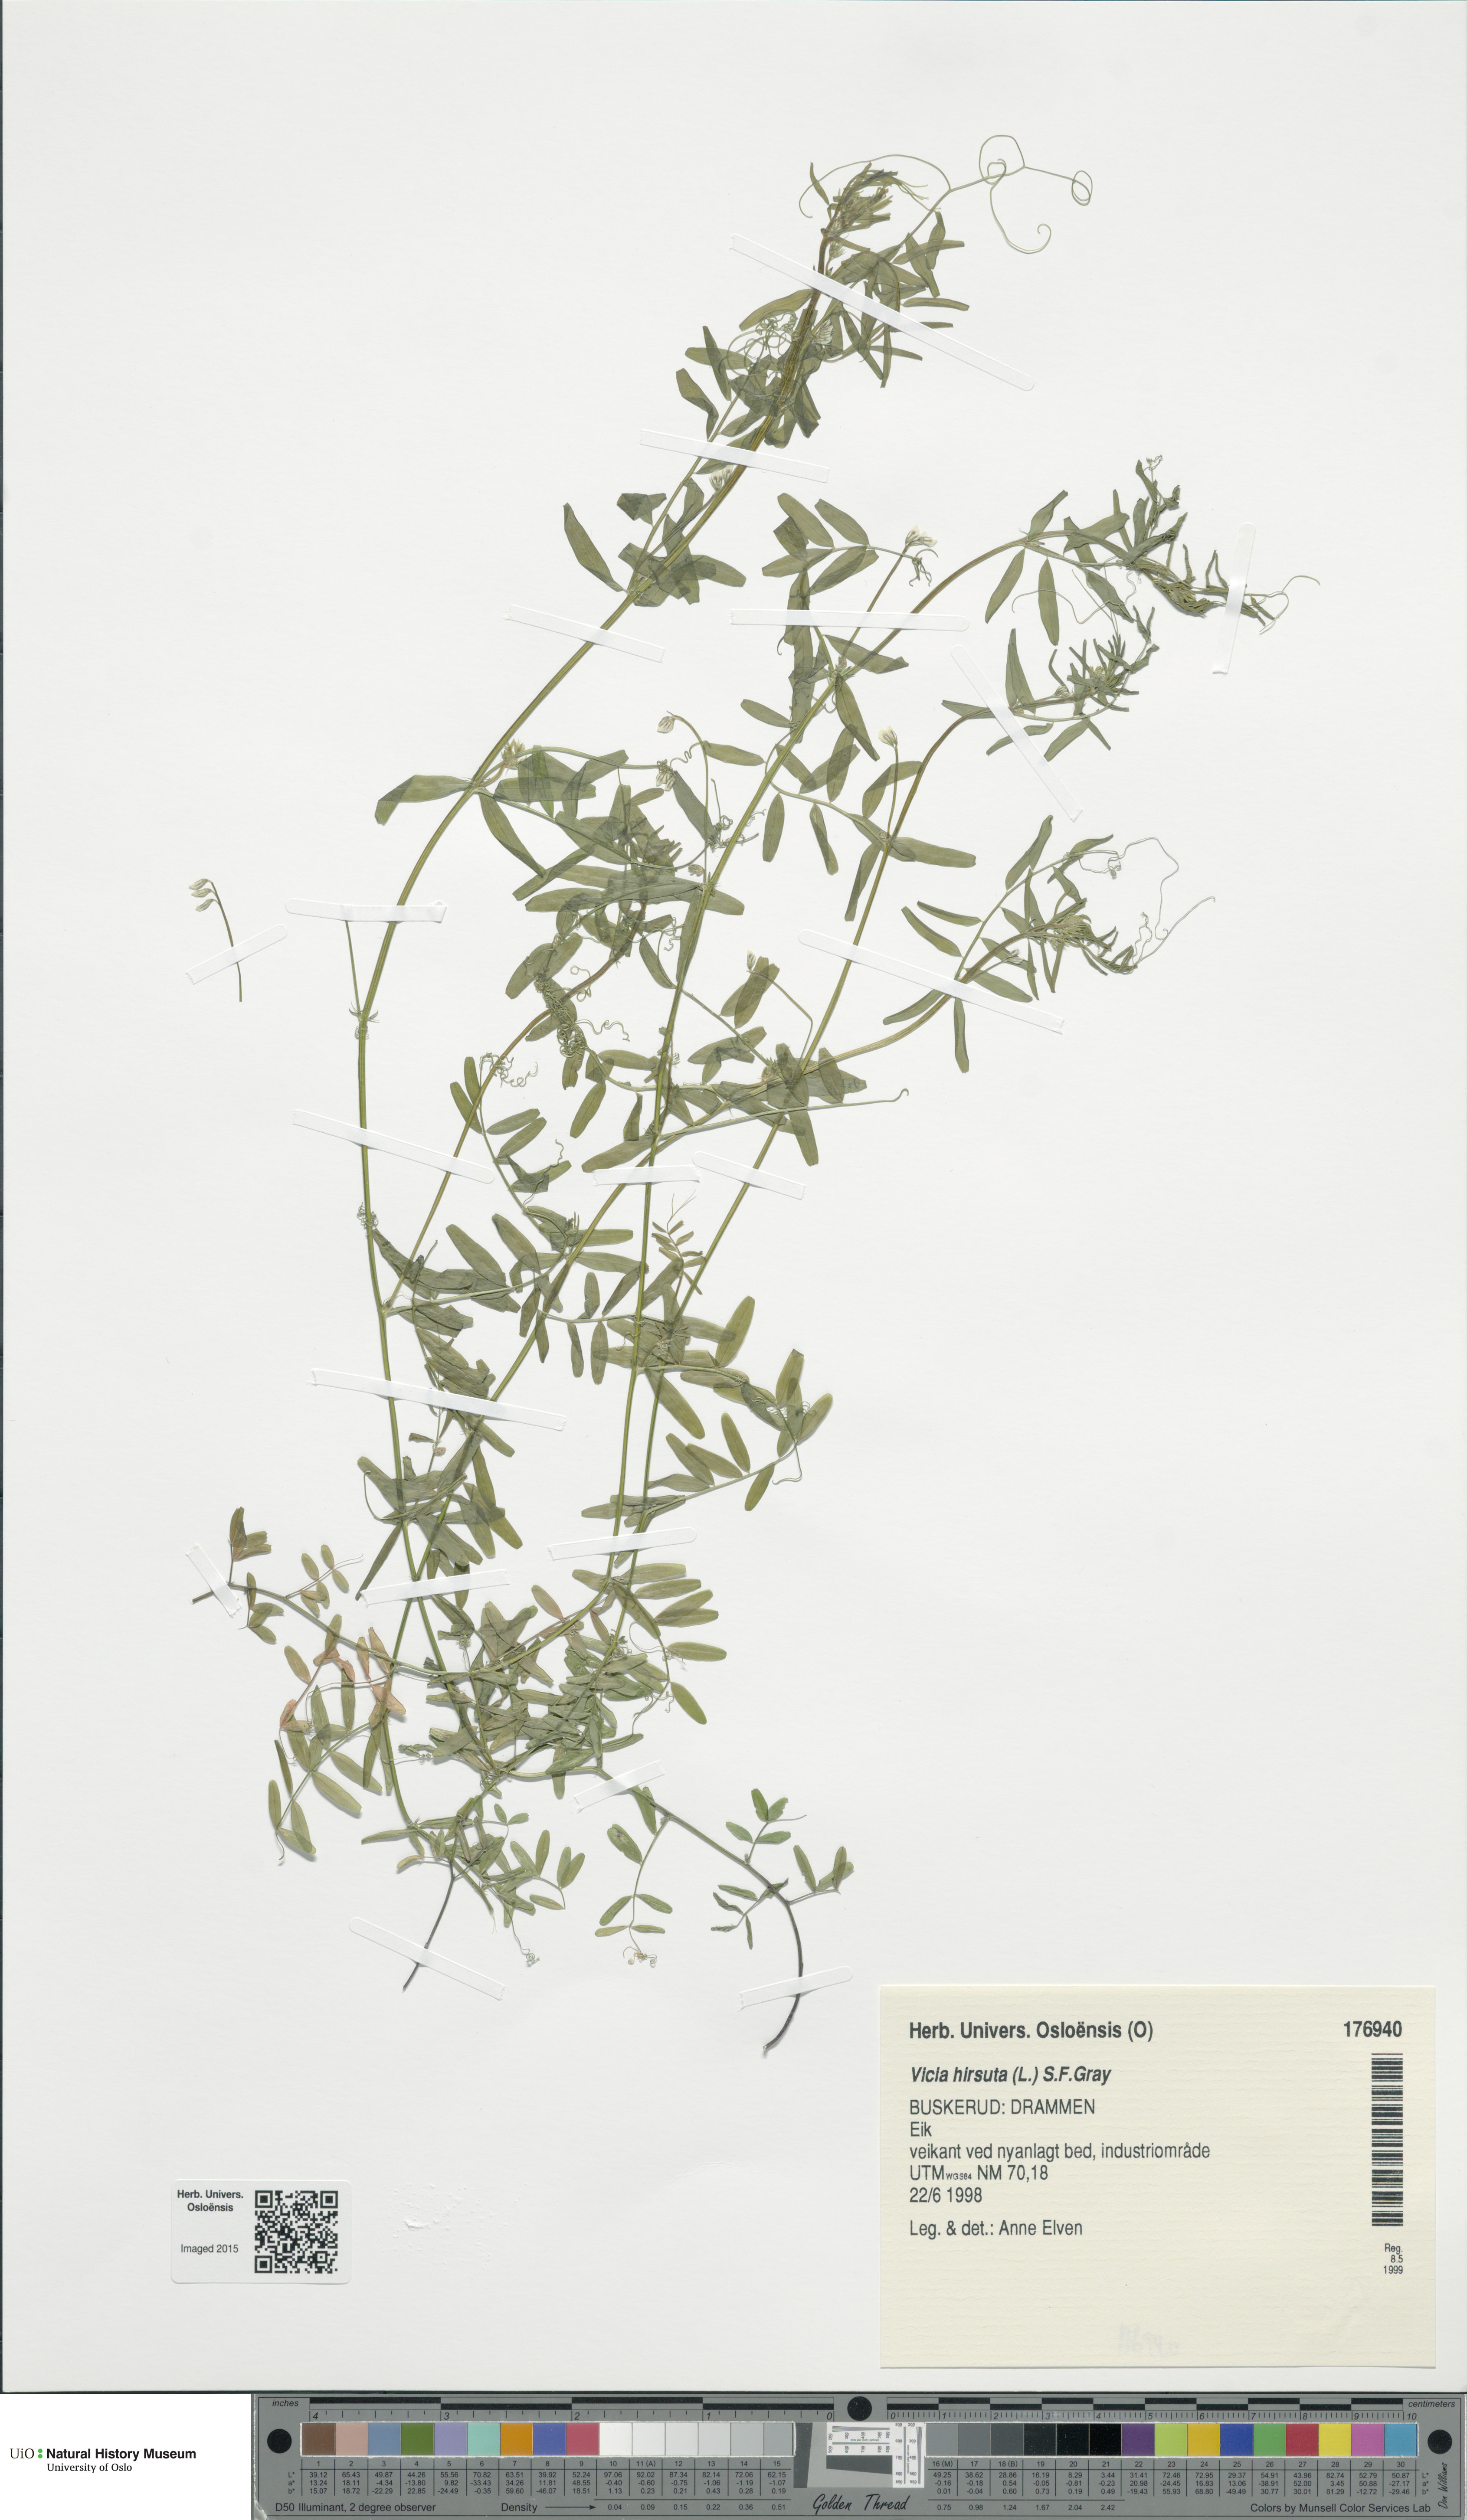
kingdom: Plantae
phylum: Tracheophyta
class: Magnoliopsida
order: Fabales
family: Fabaceae
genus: Vicia
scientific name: Vicia hirsuta
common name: Tiny vetch
